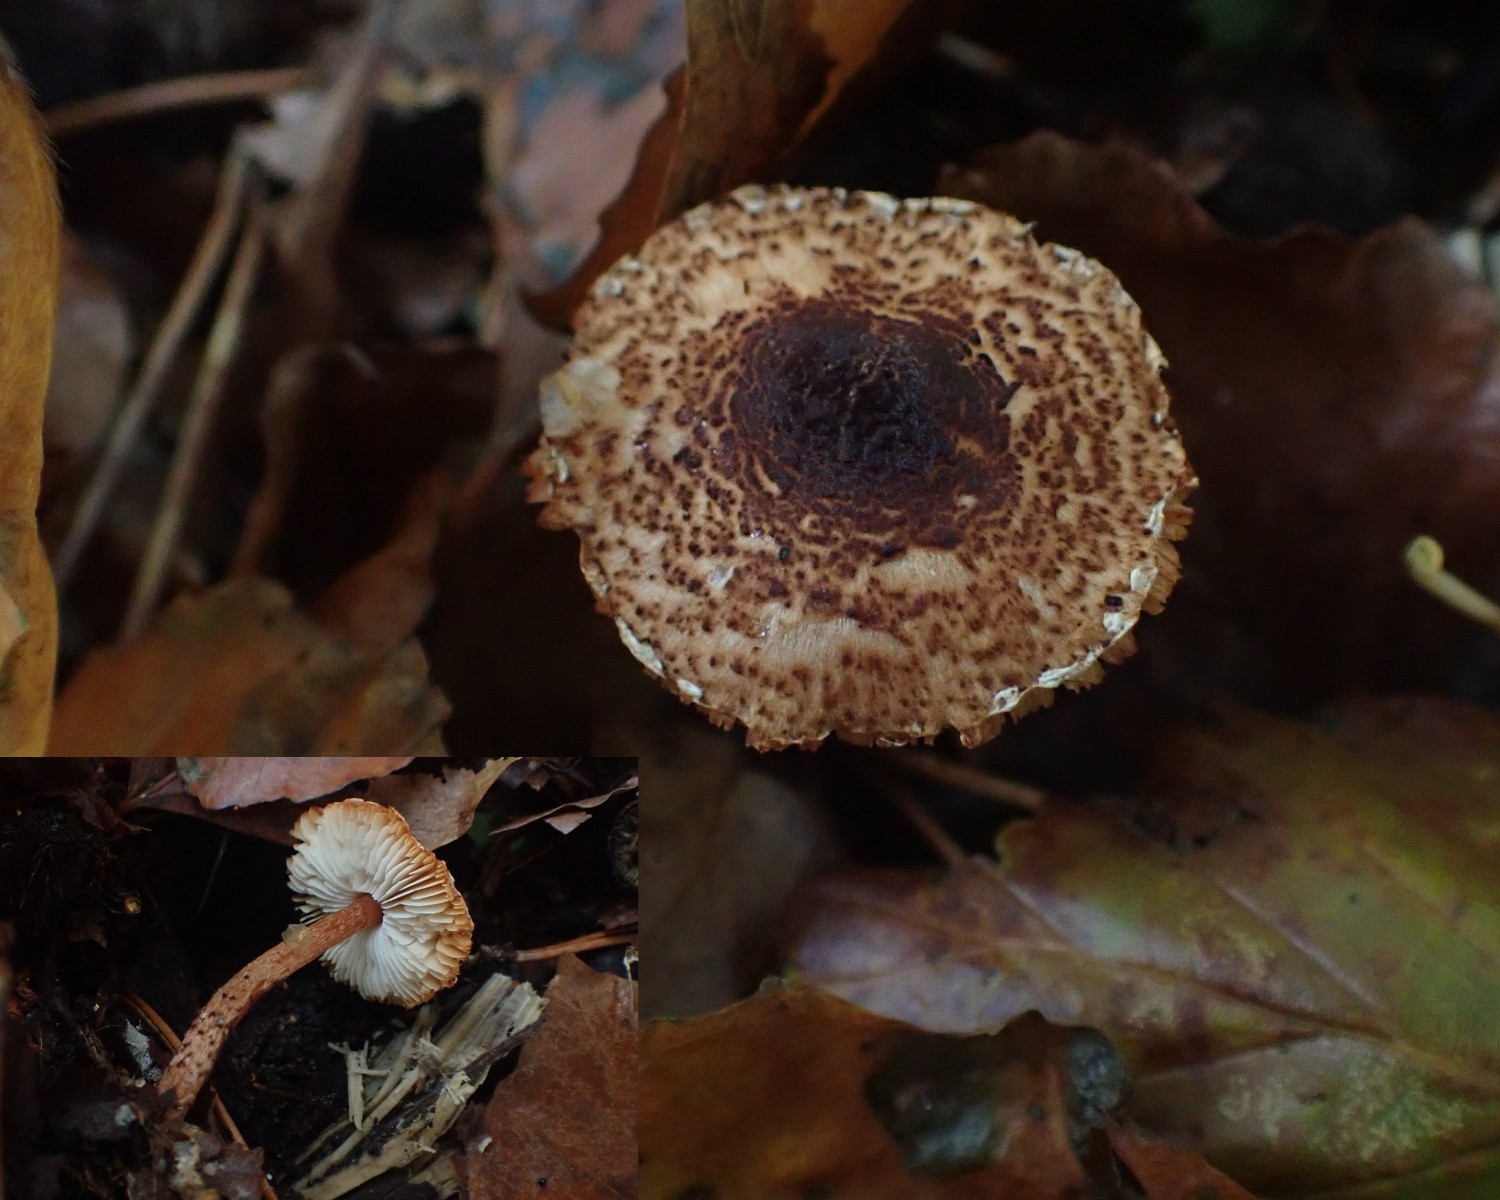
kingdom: Fungi
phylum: Basidiomycota
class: Agaricomycetes
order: Agaricales
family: Agaricaceae
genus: Lepiota
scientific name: Lepiota castanea
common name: kastaniebrun parasolhat
